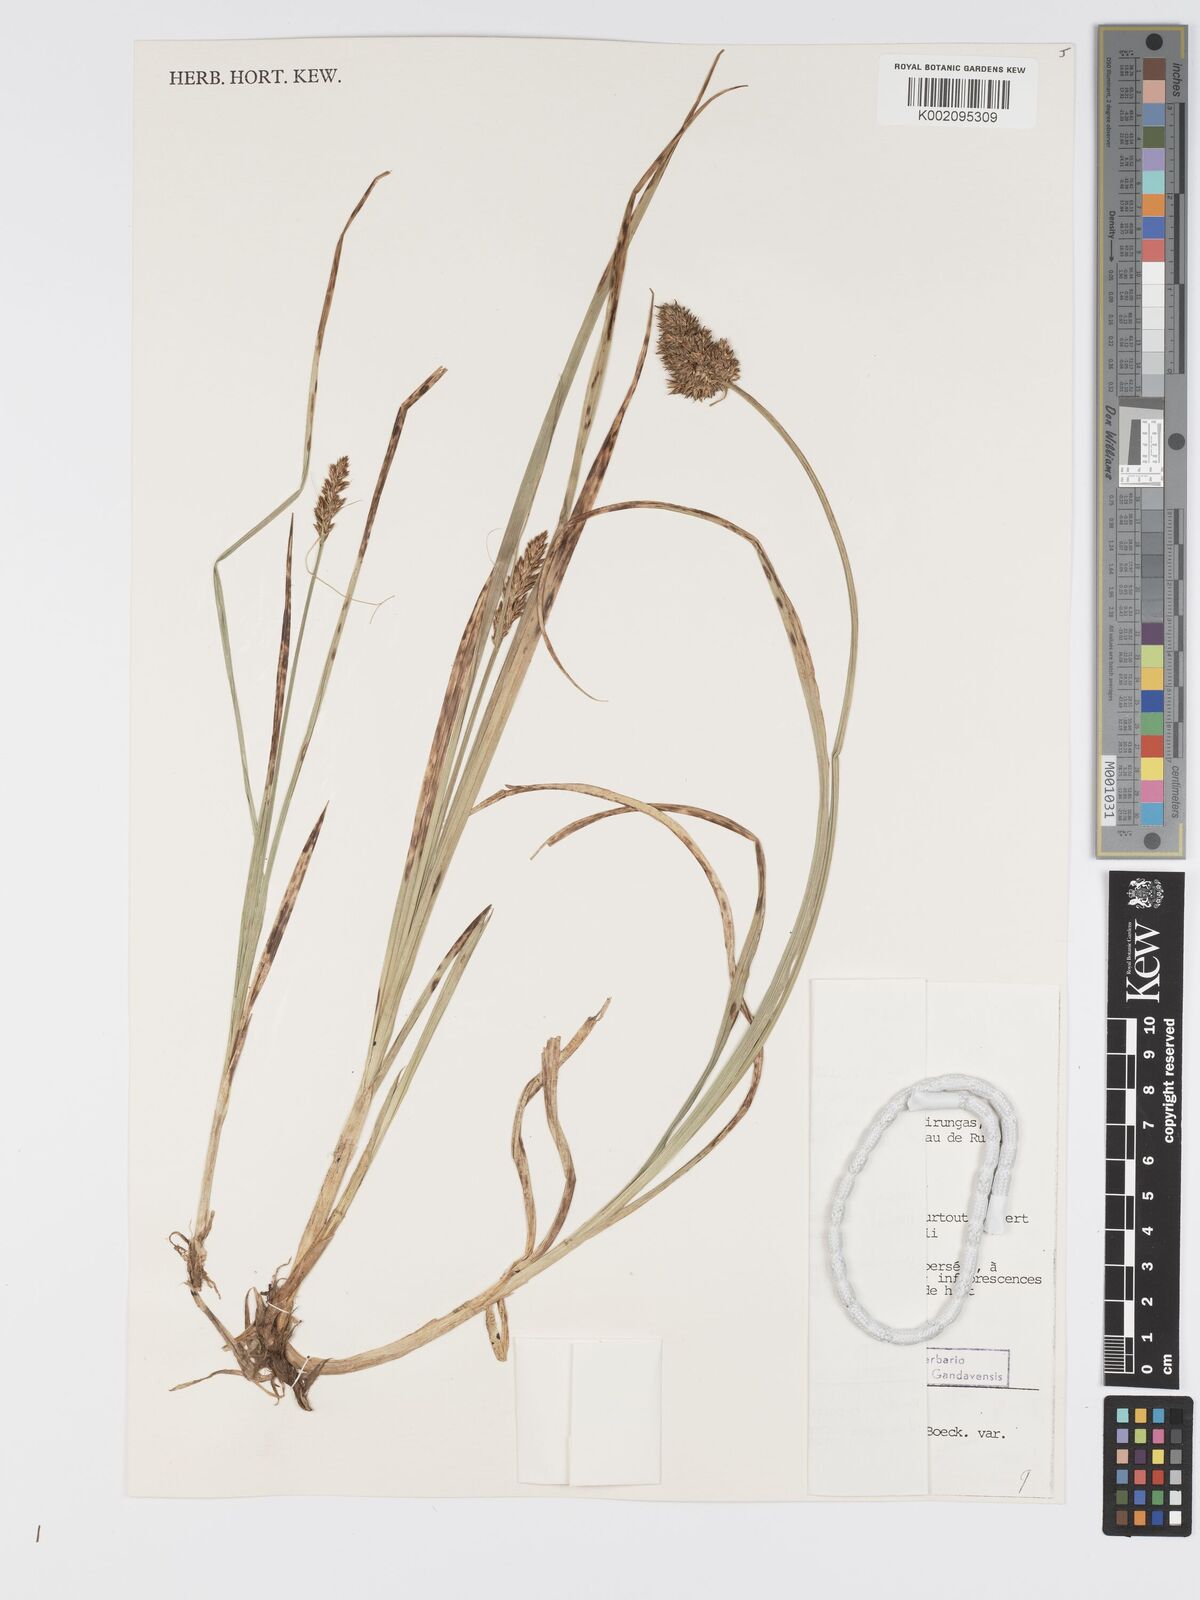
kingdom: Plantae
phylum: Tracheophyta
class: Liliopsida
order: Poales
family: Cyperaceae
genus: Carex
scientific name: Carex lycurus
